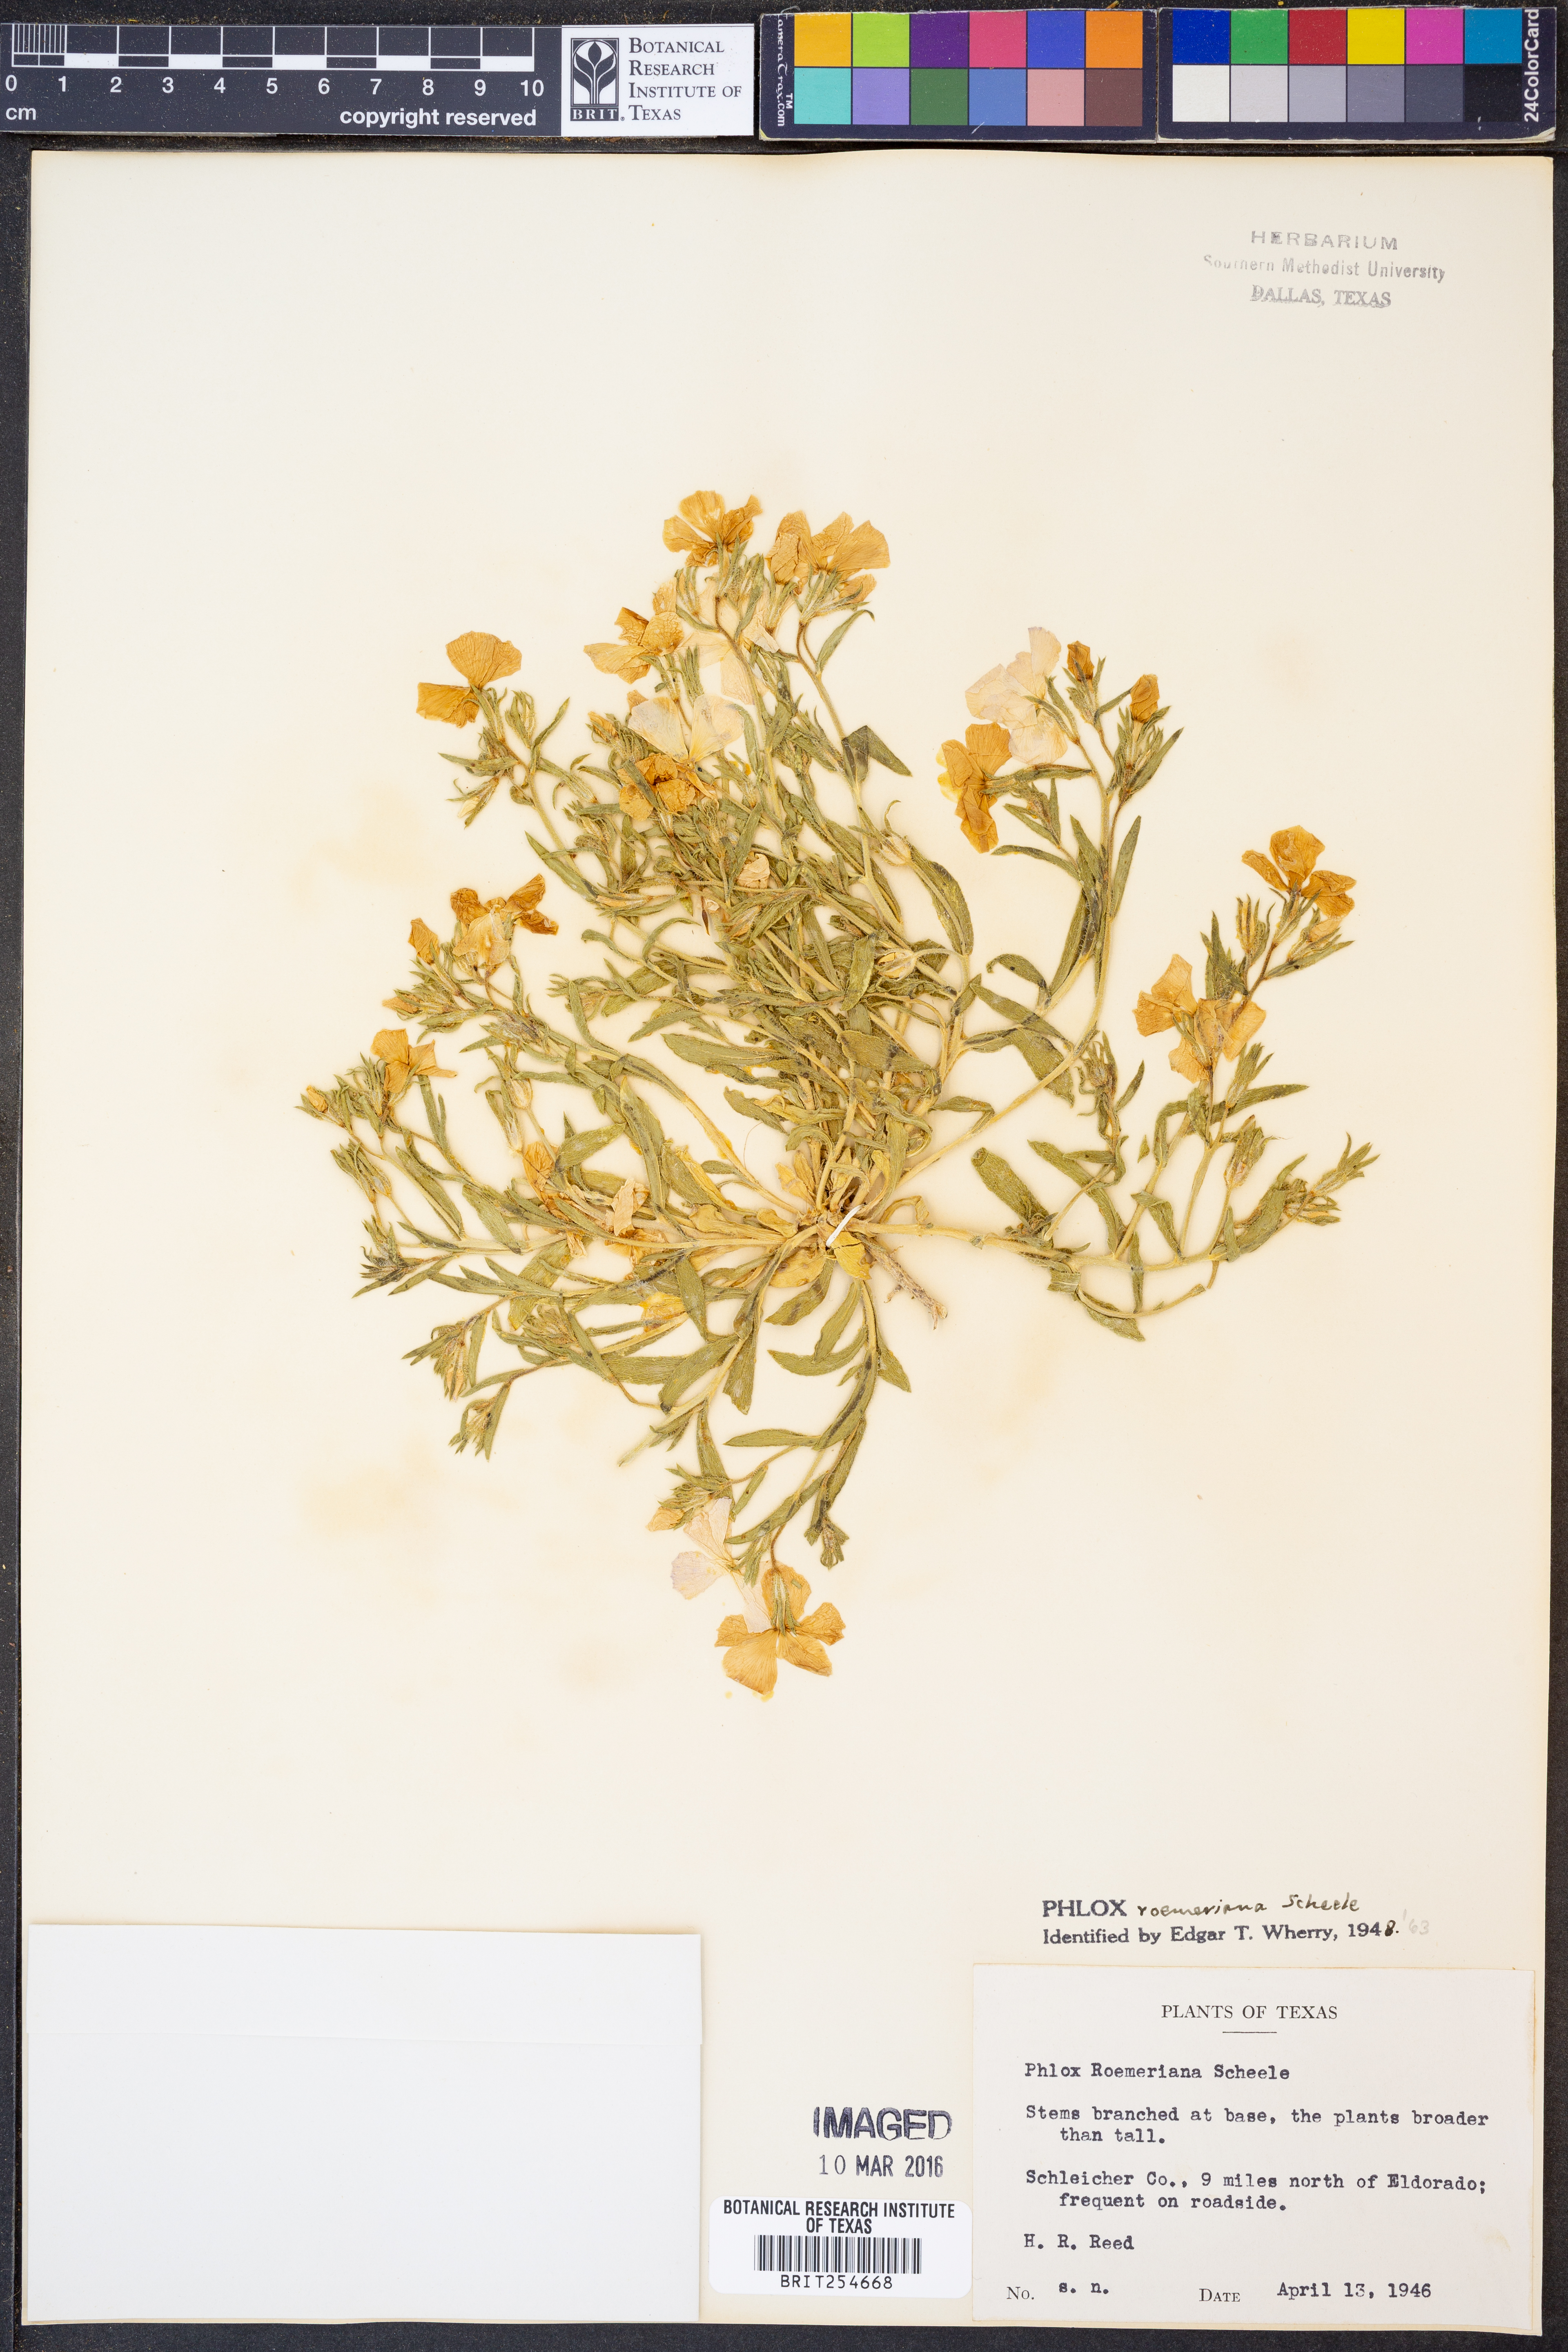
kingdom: Plantae
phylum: Tracheophyta
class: Magnoliopsida
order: Ericales
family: Polemoniaceae
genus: Phlox
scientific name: Phlox roemeriana
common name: Roemer's phlox
